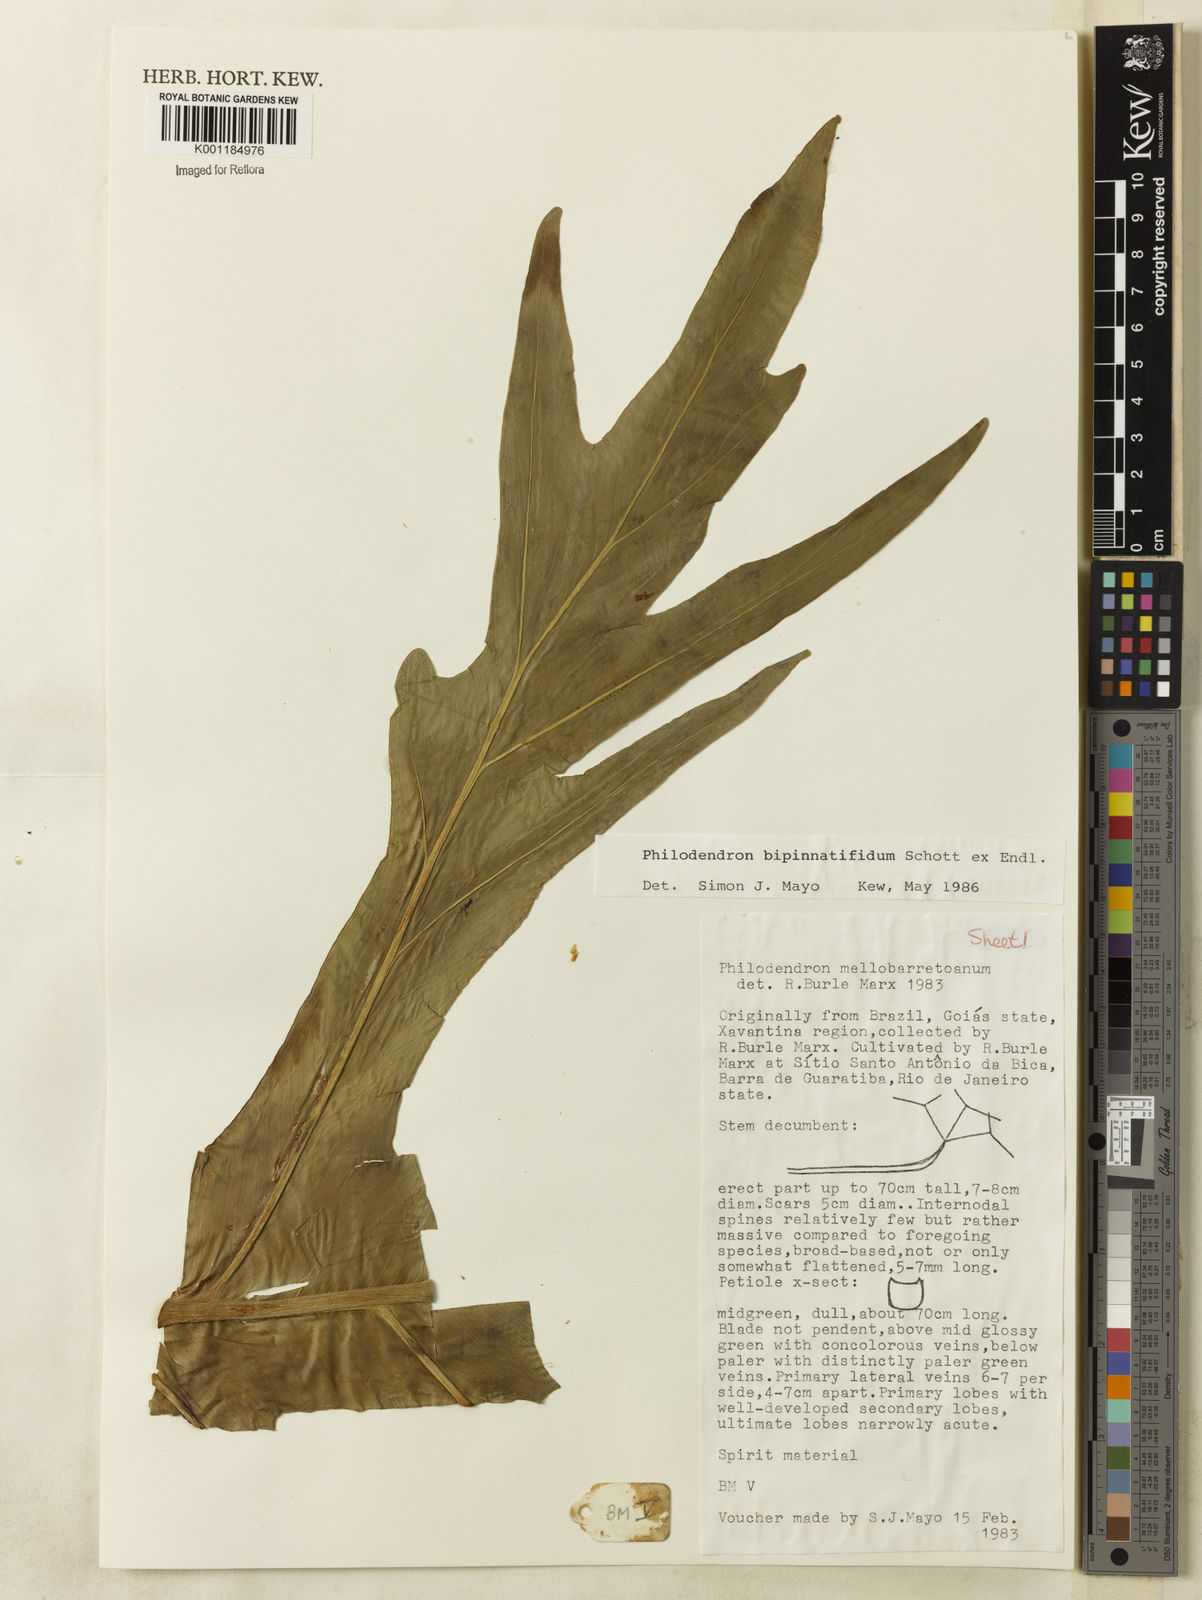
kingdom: Plantae
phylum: Tracheophyta
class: Liliopsida
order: Alismatales
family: Araceae
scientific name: Araceae
